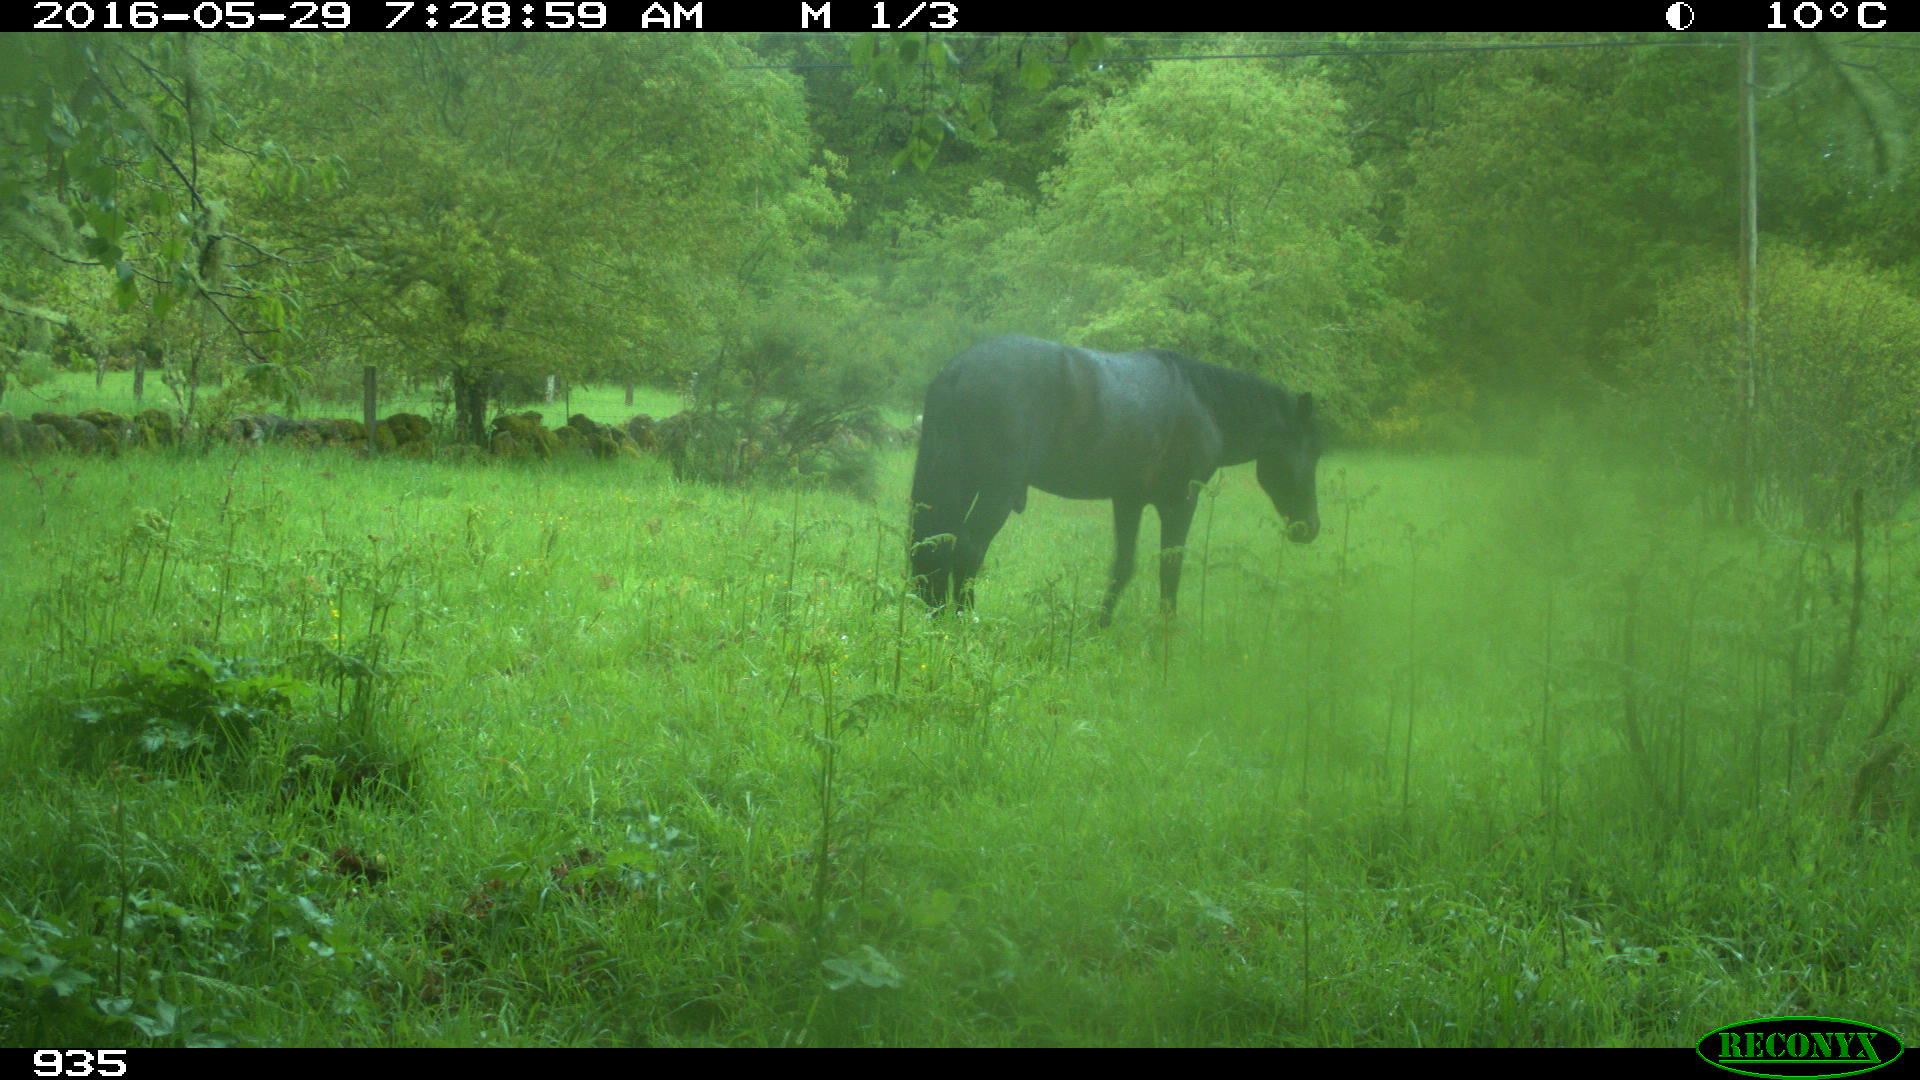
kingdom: Animalia
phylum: Chordata
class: Mammalia
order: Perissodactyla
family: Equidae
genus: Equus
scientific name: Equus caballus
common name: Horse
